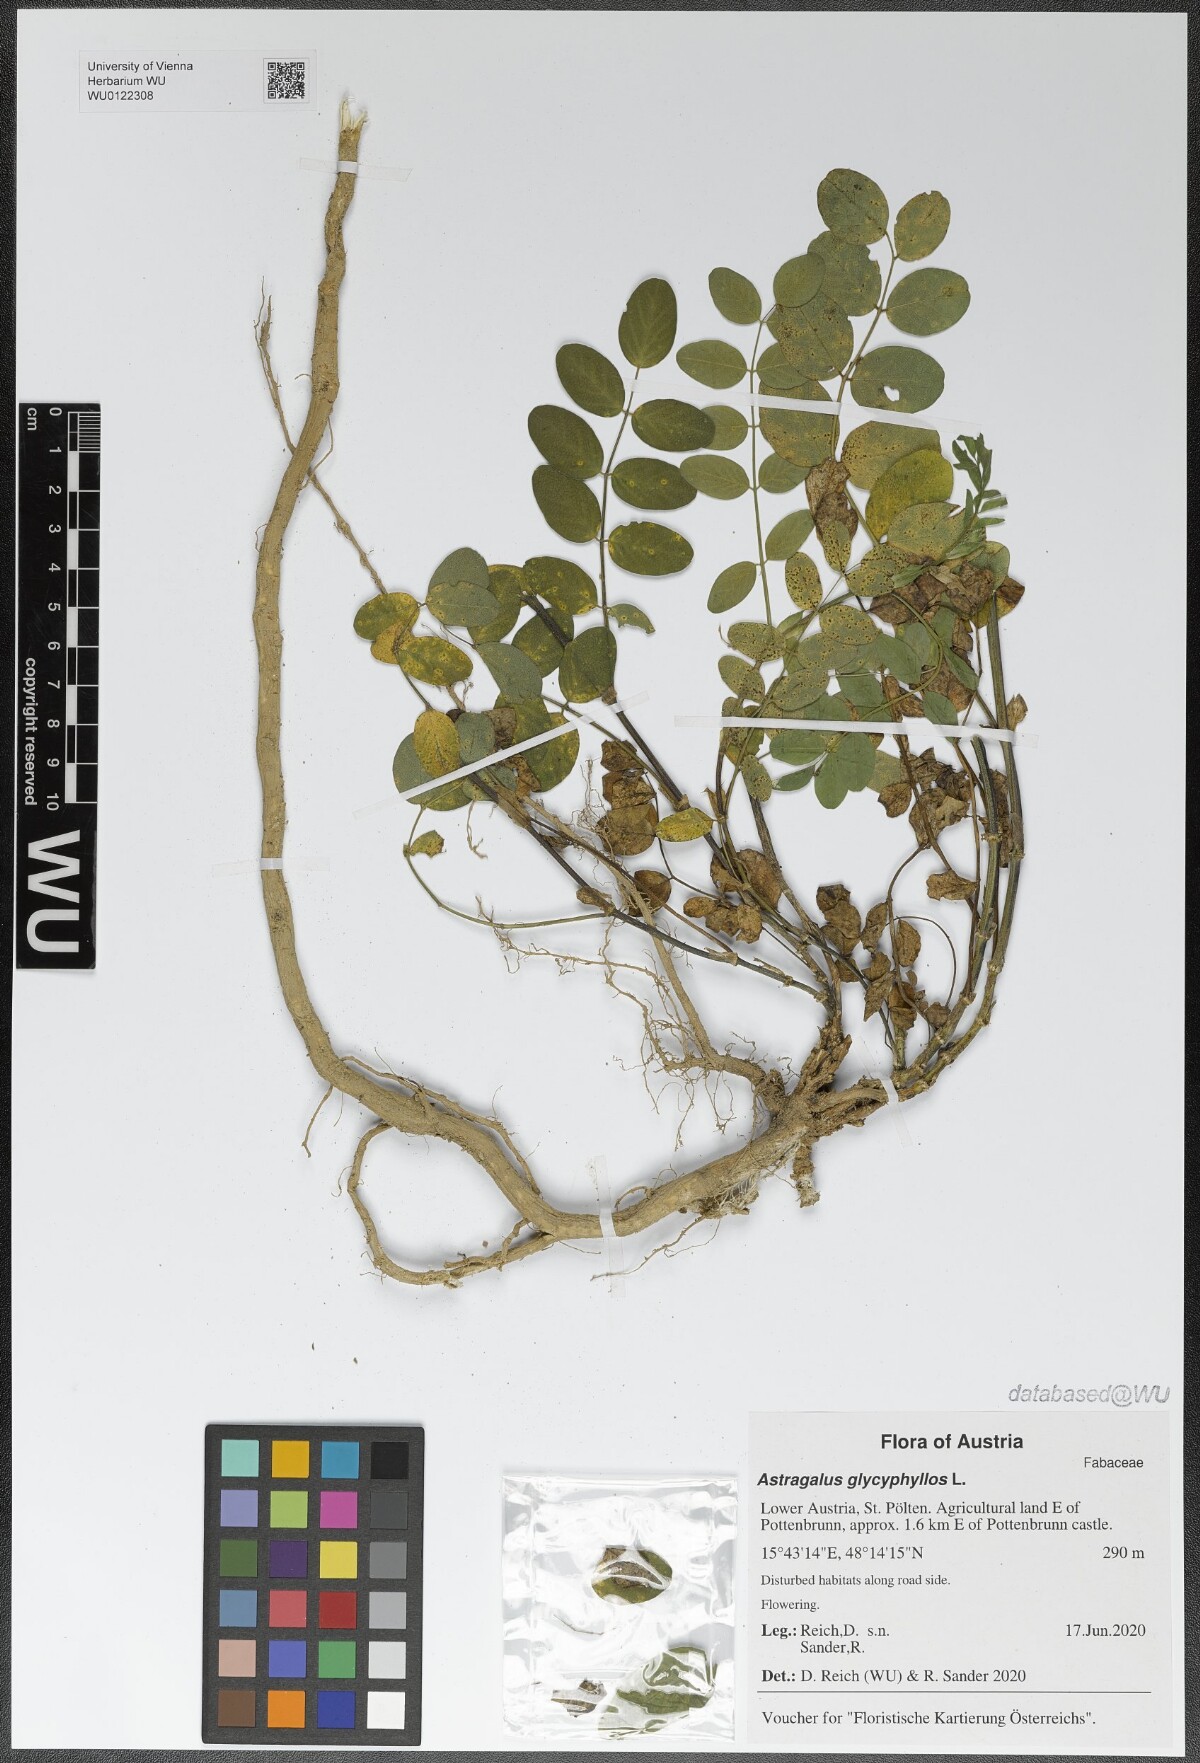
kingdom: Plantae
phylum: Tracheophyta
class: Magnoliopsida
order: Fabales
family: Fabaceae
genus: Astragalus
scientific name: Astragalus glycyphyllos
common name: Wild liquorice
